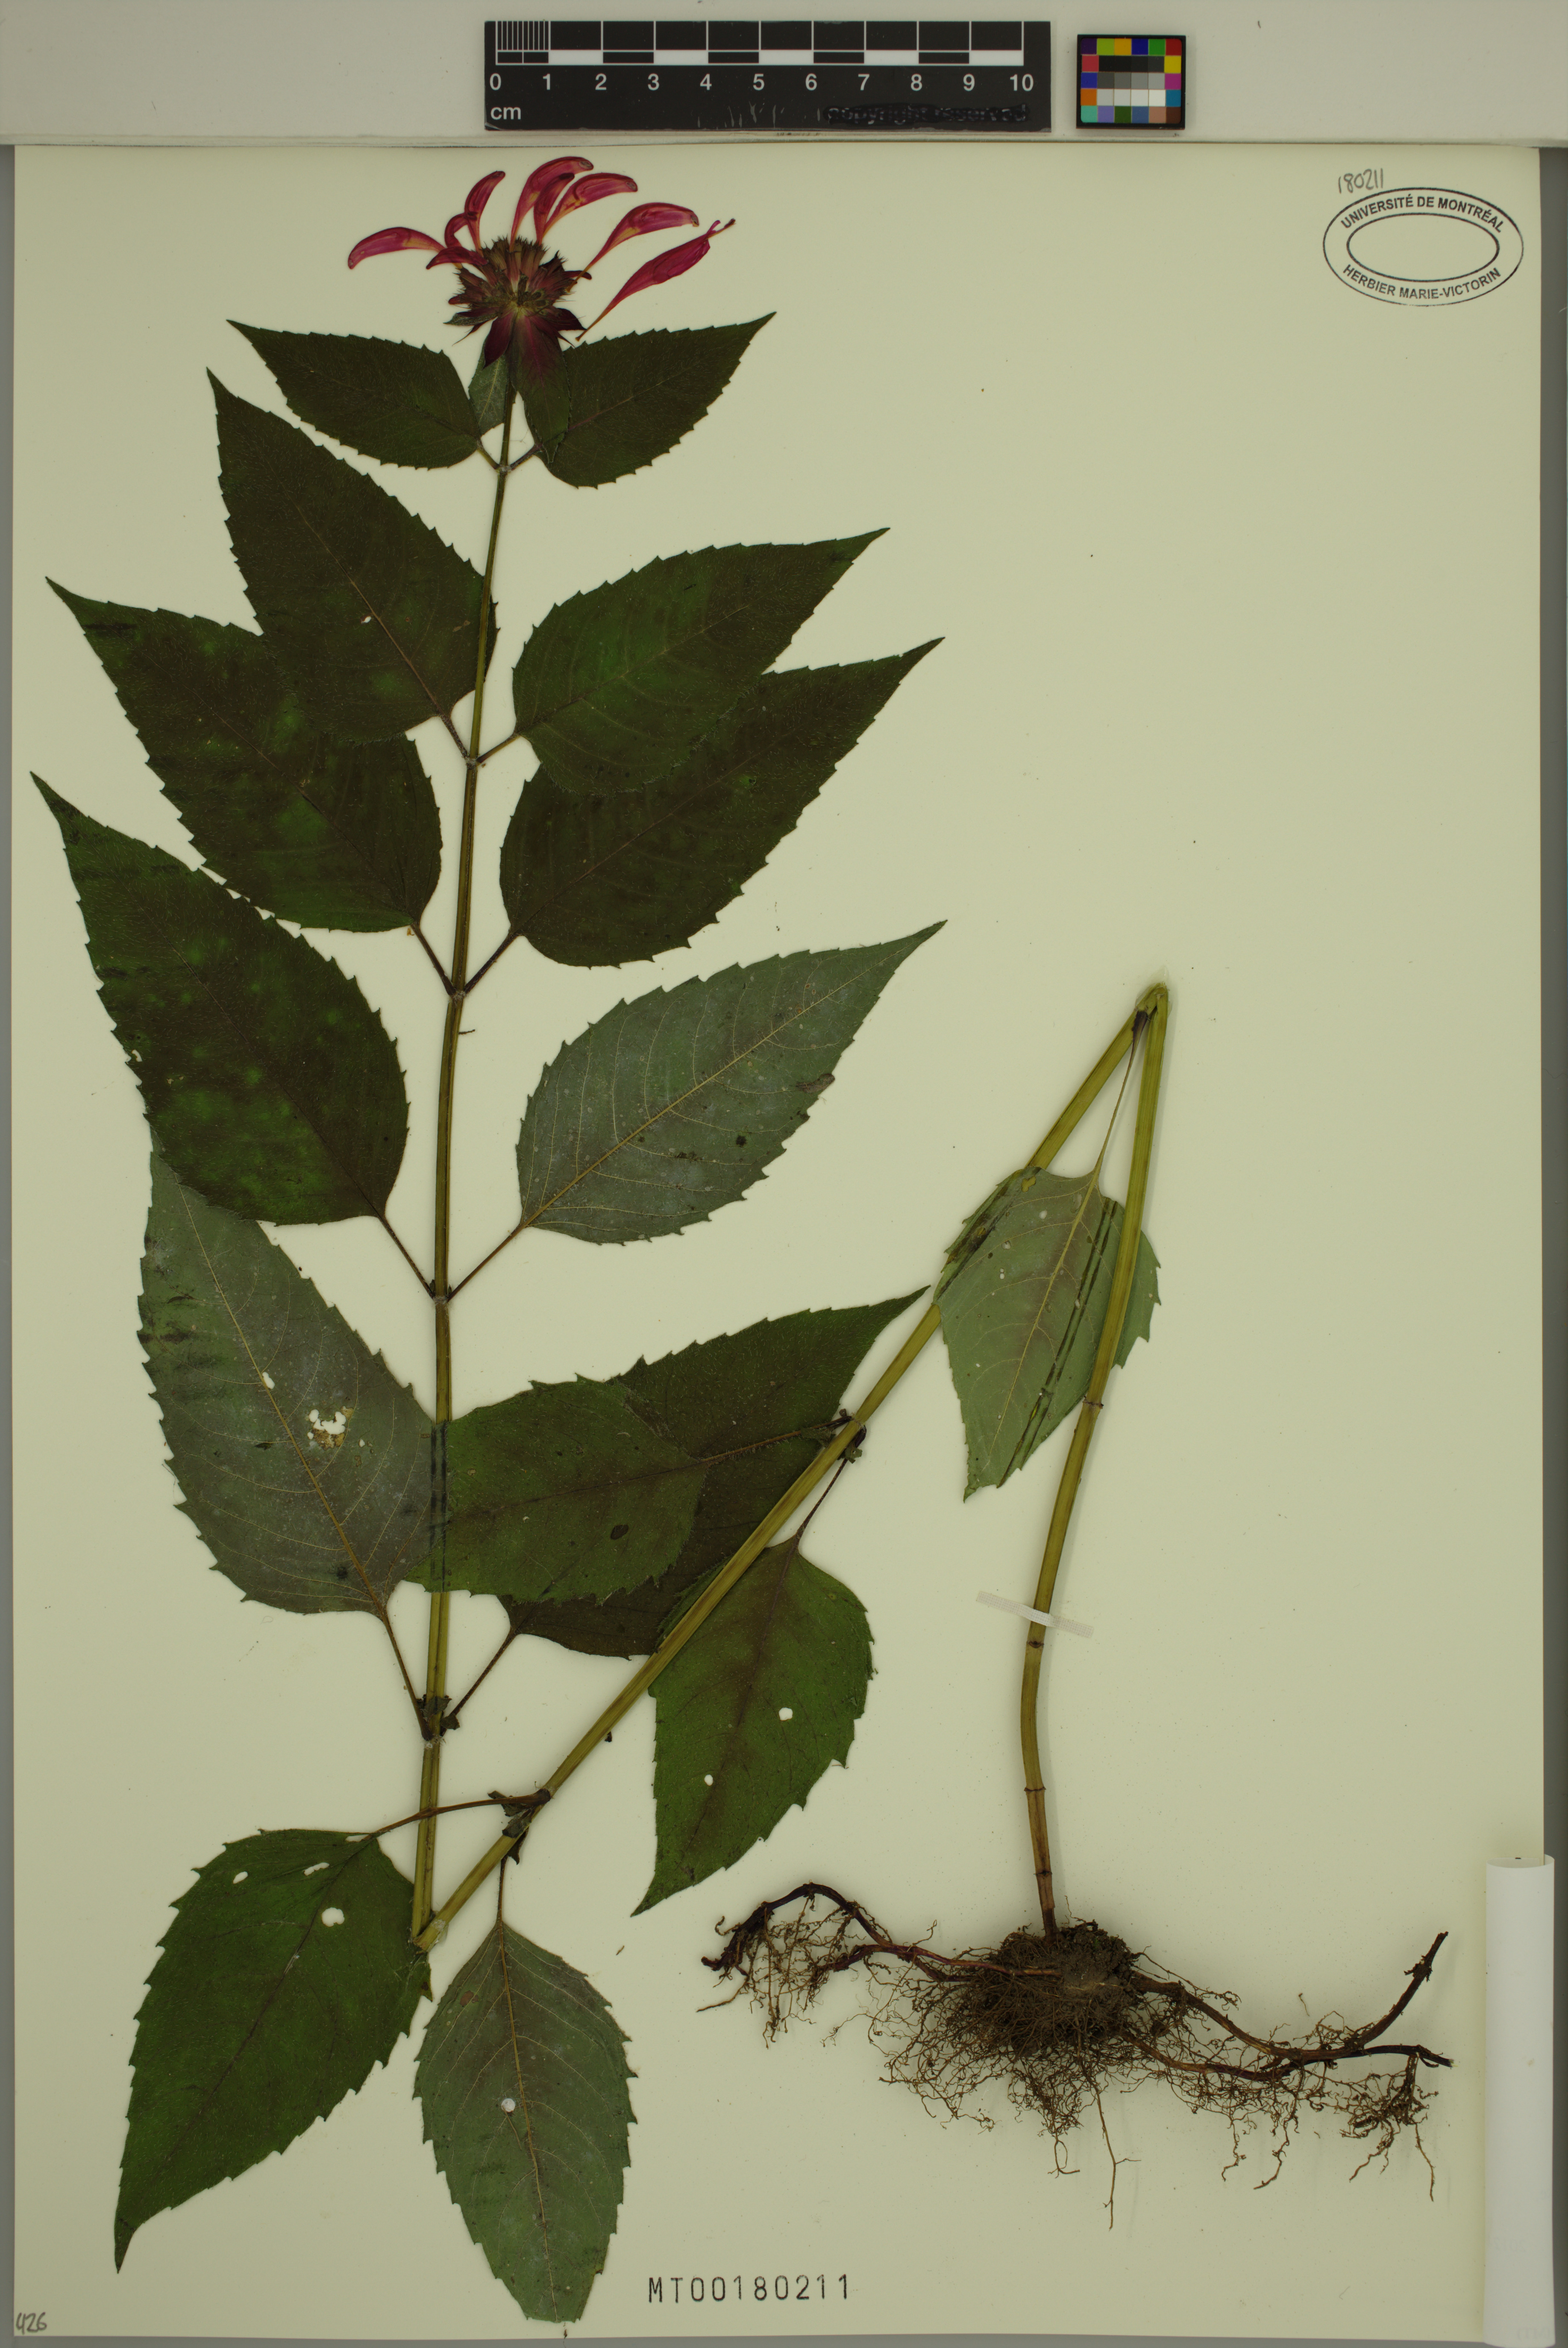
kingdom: Plantae
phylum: Tracheophyta
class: Magnoliopsida
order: Lamiales
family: Lamiaceae
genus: Monarda
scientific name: Monarda didyma
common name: Beebalm
